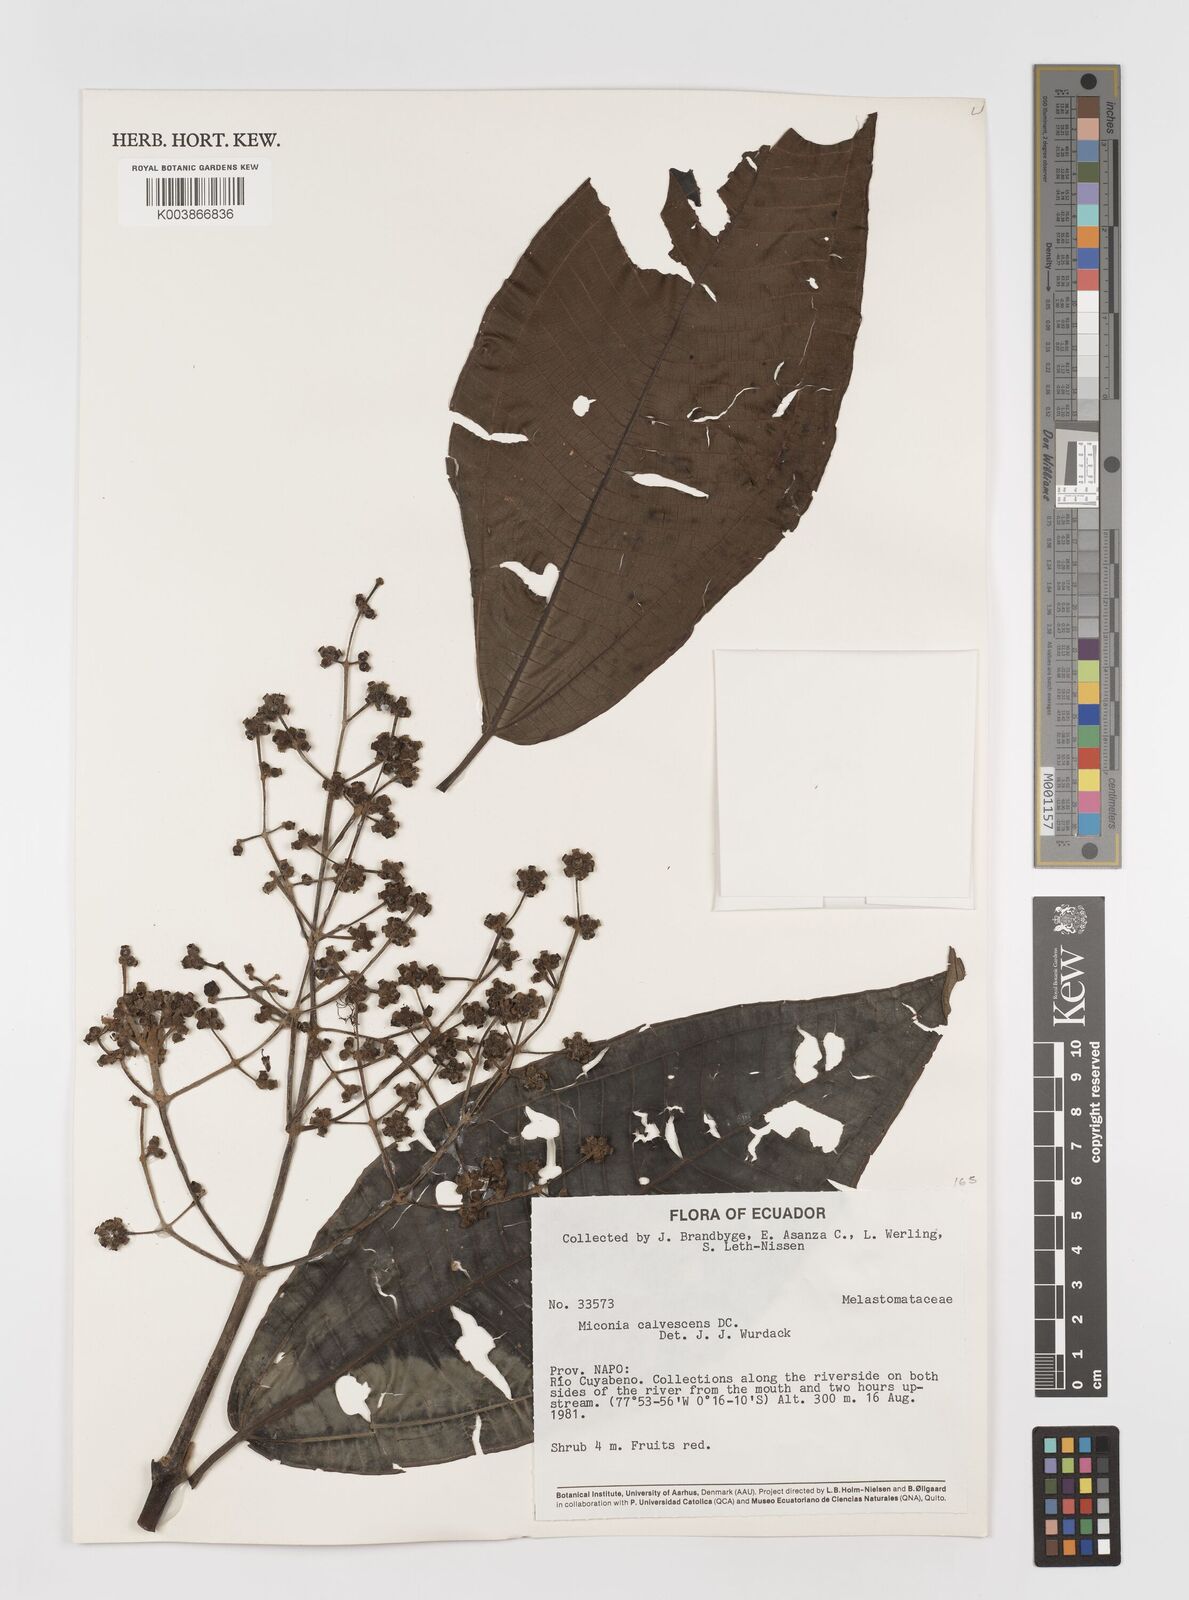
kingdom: Plantae
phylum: Tracheophyta
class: Magnoliopsida
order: Myrtales
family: Melastomataceae
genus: Miconia
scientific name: Miconia calvescens
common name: Purple plague
